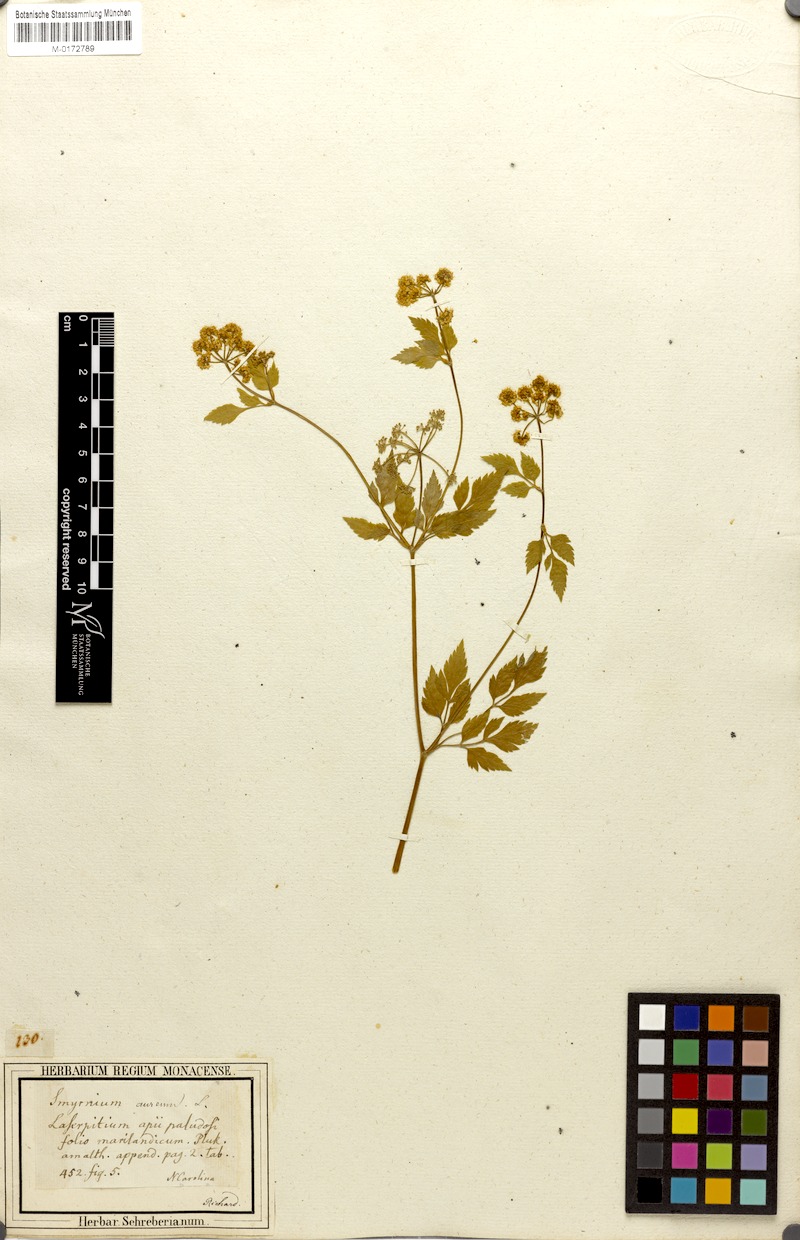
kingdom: Plantae
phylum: Tracheophyta
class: Magnoliopsida
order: Apiales
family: Apiaceae
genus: Zizia
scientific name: Zizia aurea
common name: Golden alexanders
